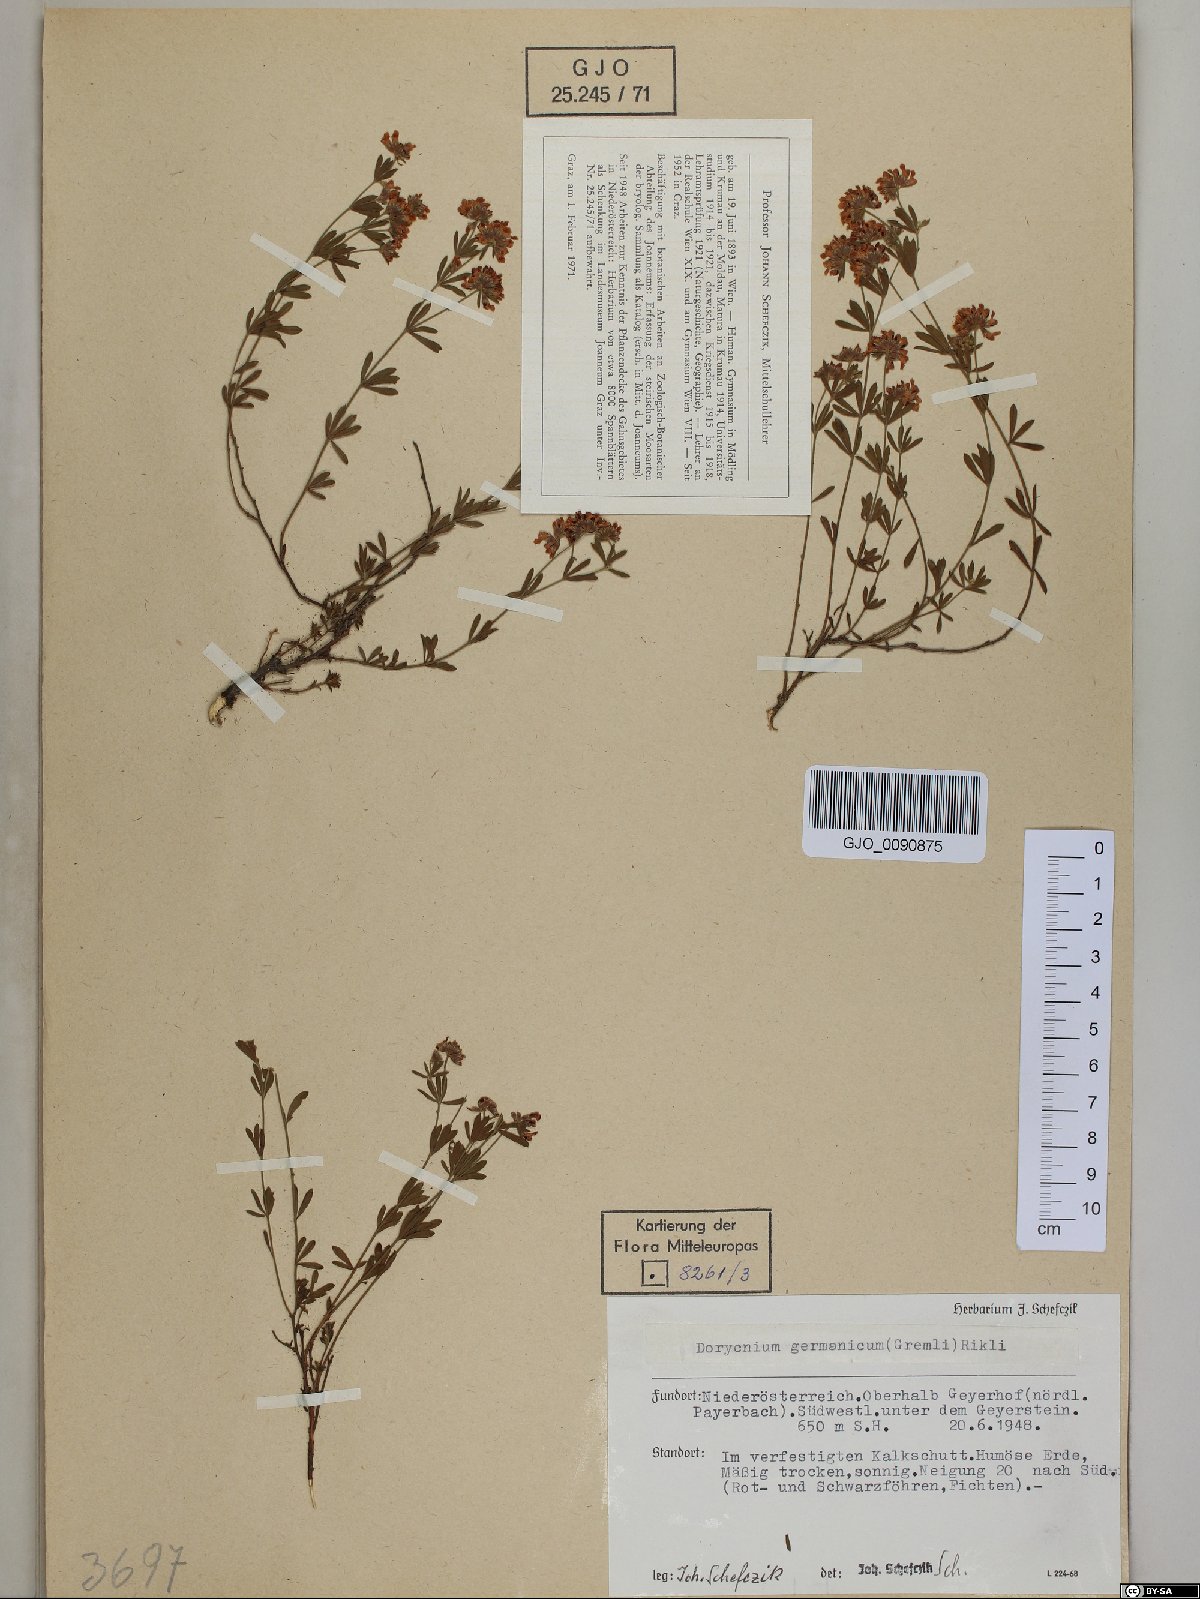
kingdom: Plantae
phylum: Tracheophyta
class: Magnoliopsida
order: Fabales
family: Fabaceae
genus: Lotus
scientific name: Lotus germanicus
